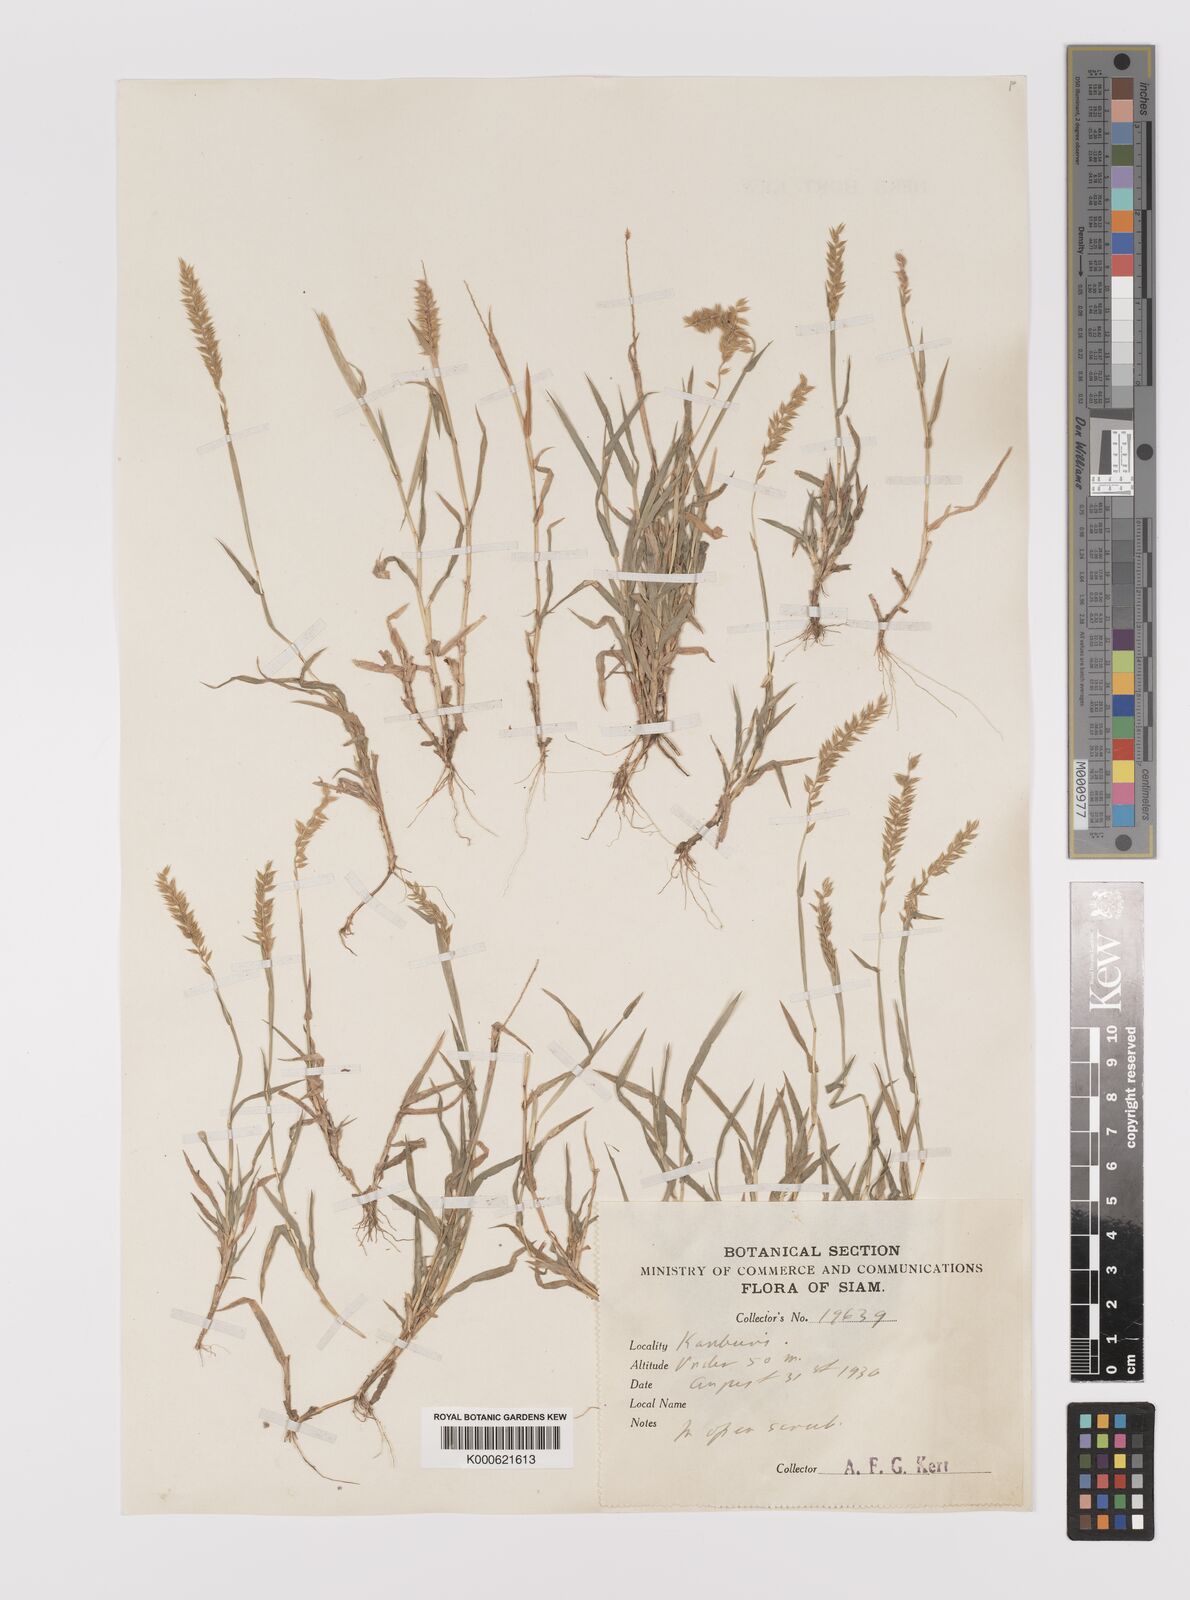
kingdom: Plantae
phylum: Tracheophyta
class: Liliopsida
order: Poales
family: Poaceae
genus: Tragus
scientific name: Tragus mongolorum
